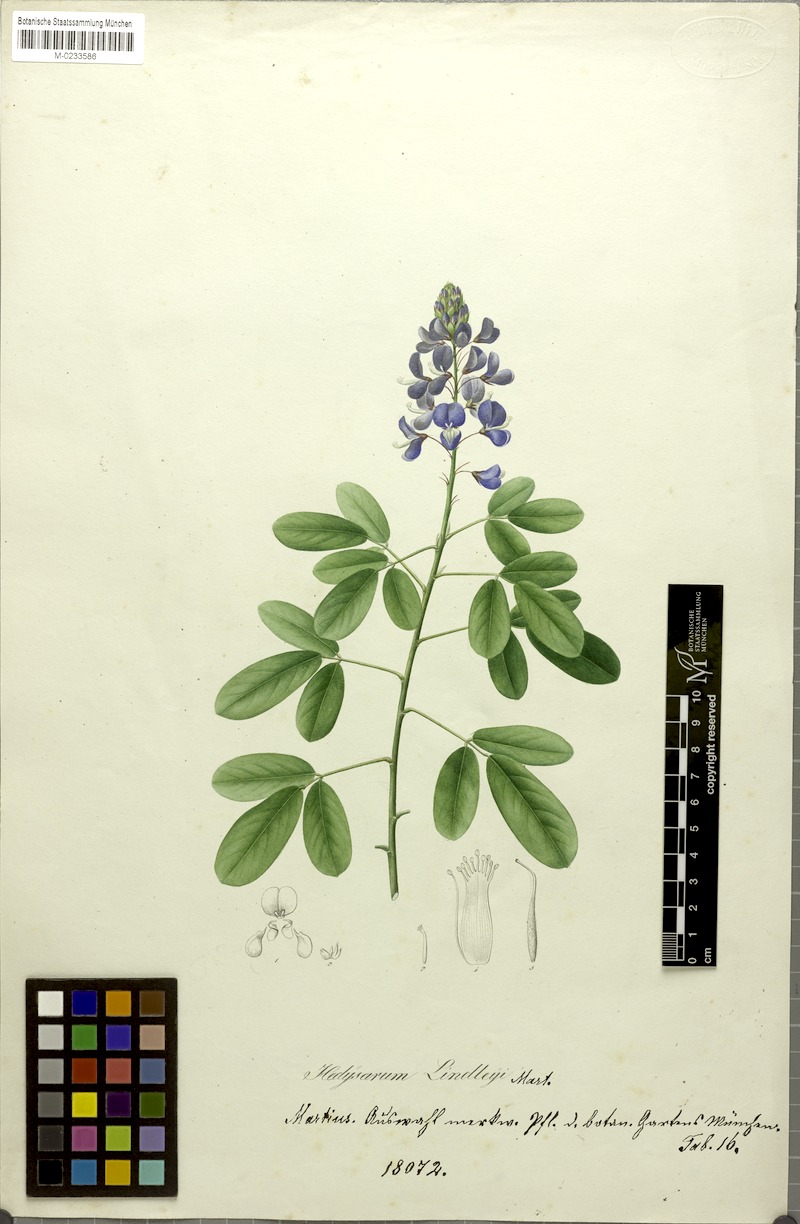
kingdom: Plantae
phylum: Tracheophyta
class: Magnoliopsida
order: Fabales
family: Fabaceae
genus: Grona
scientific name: Grona adscendens
